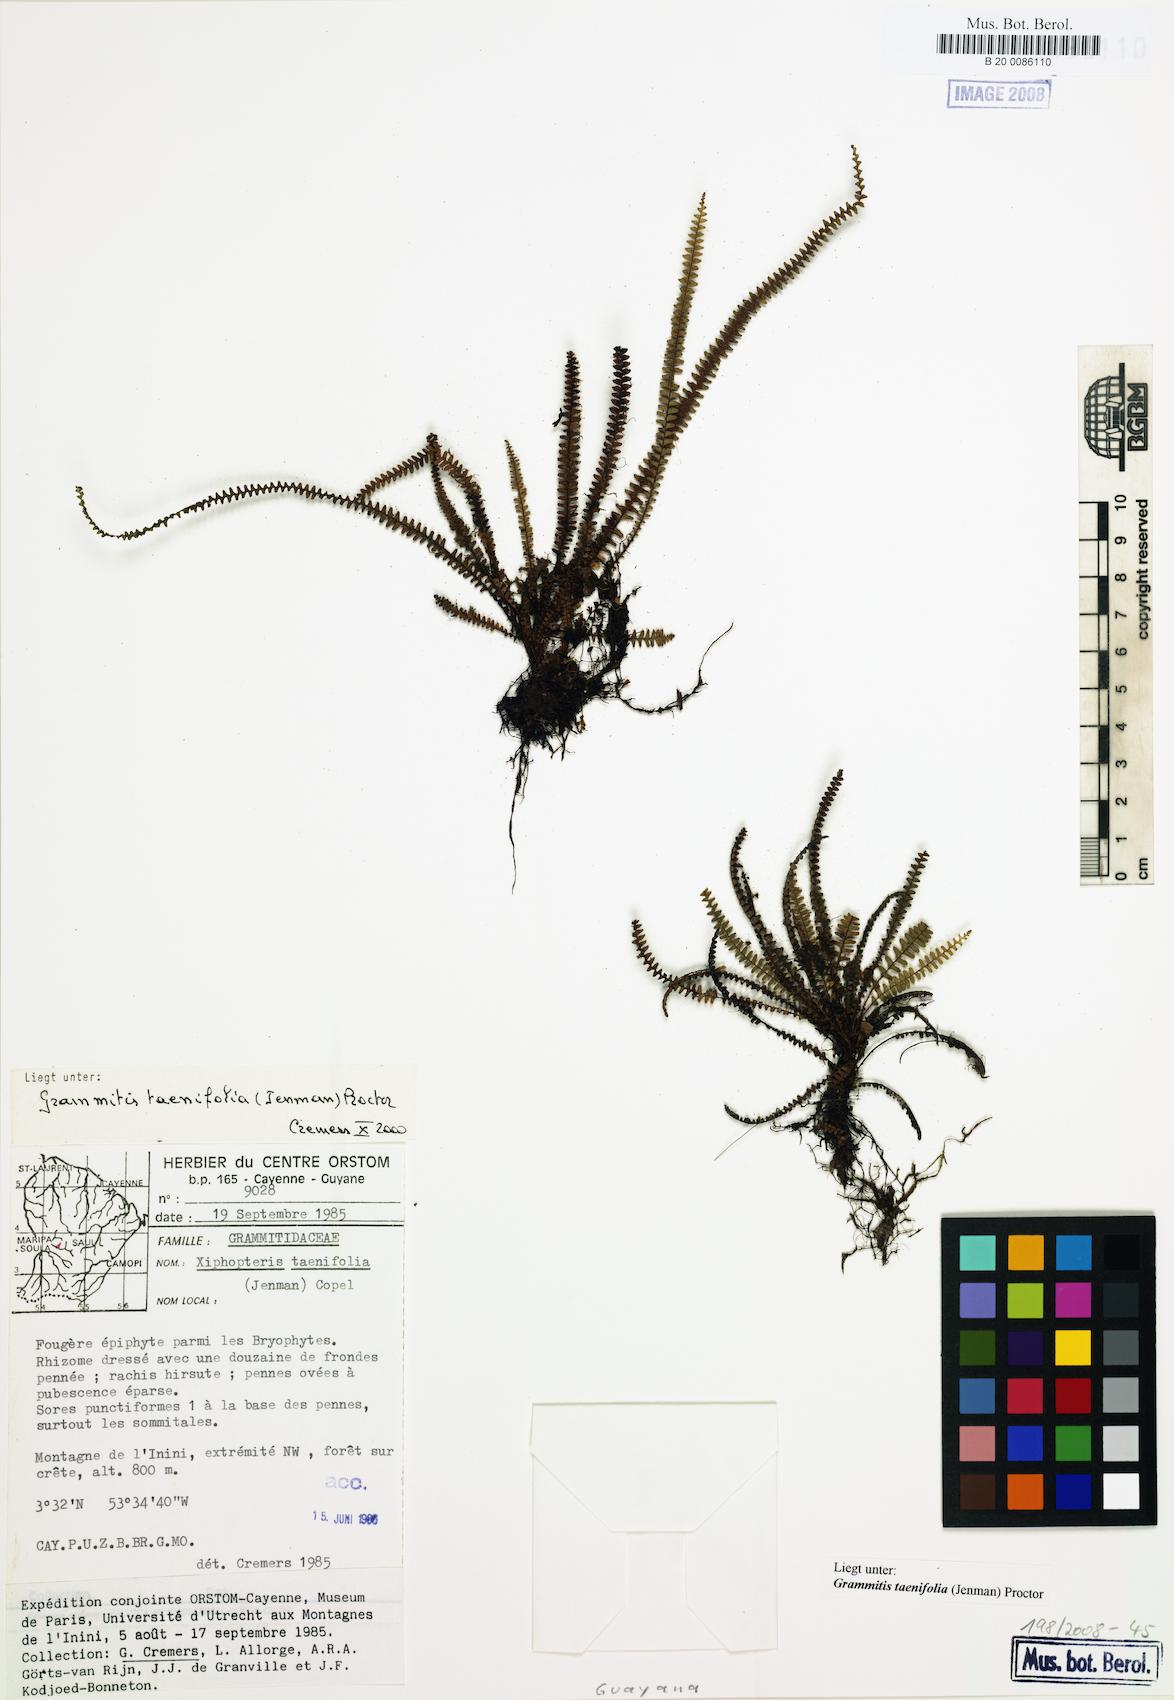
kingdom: Plantae
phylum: Tracheophyta
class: Polypodiopsida
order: Polypodiales
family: Polypodiaceae
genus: Moranopteris
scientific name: Moranopteris taenifolia
